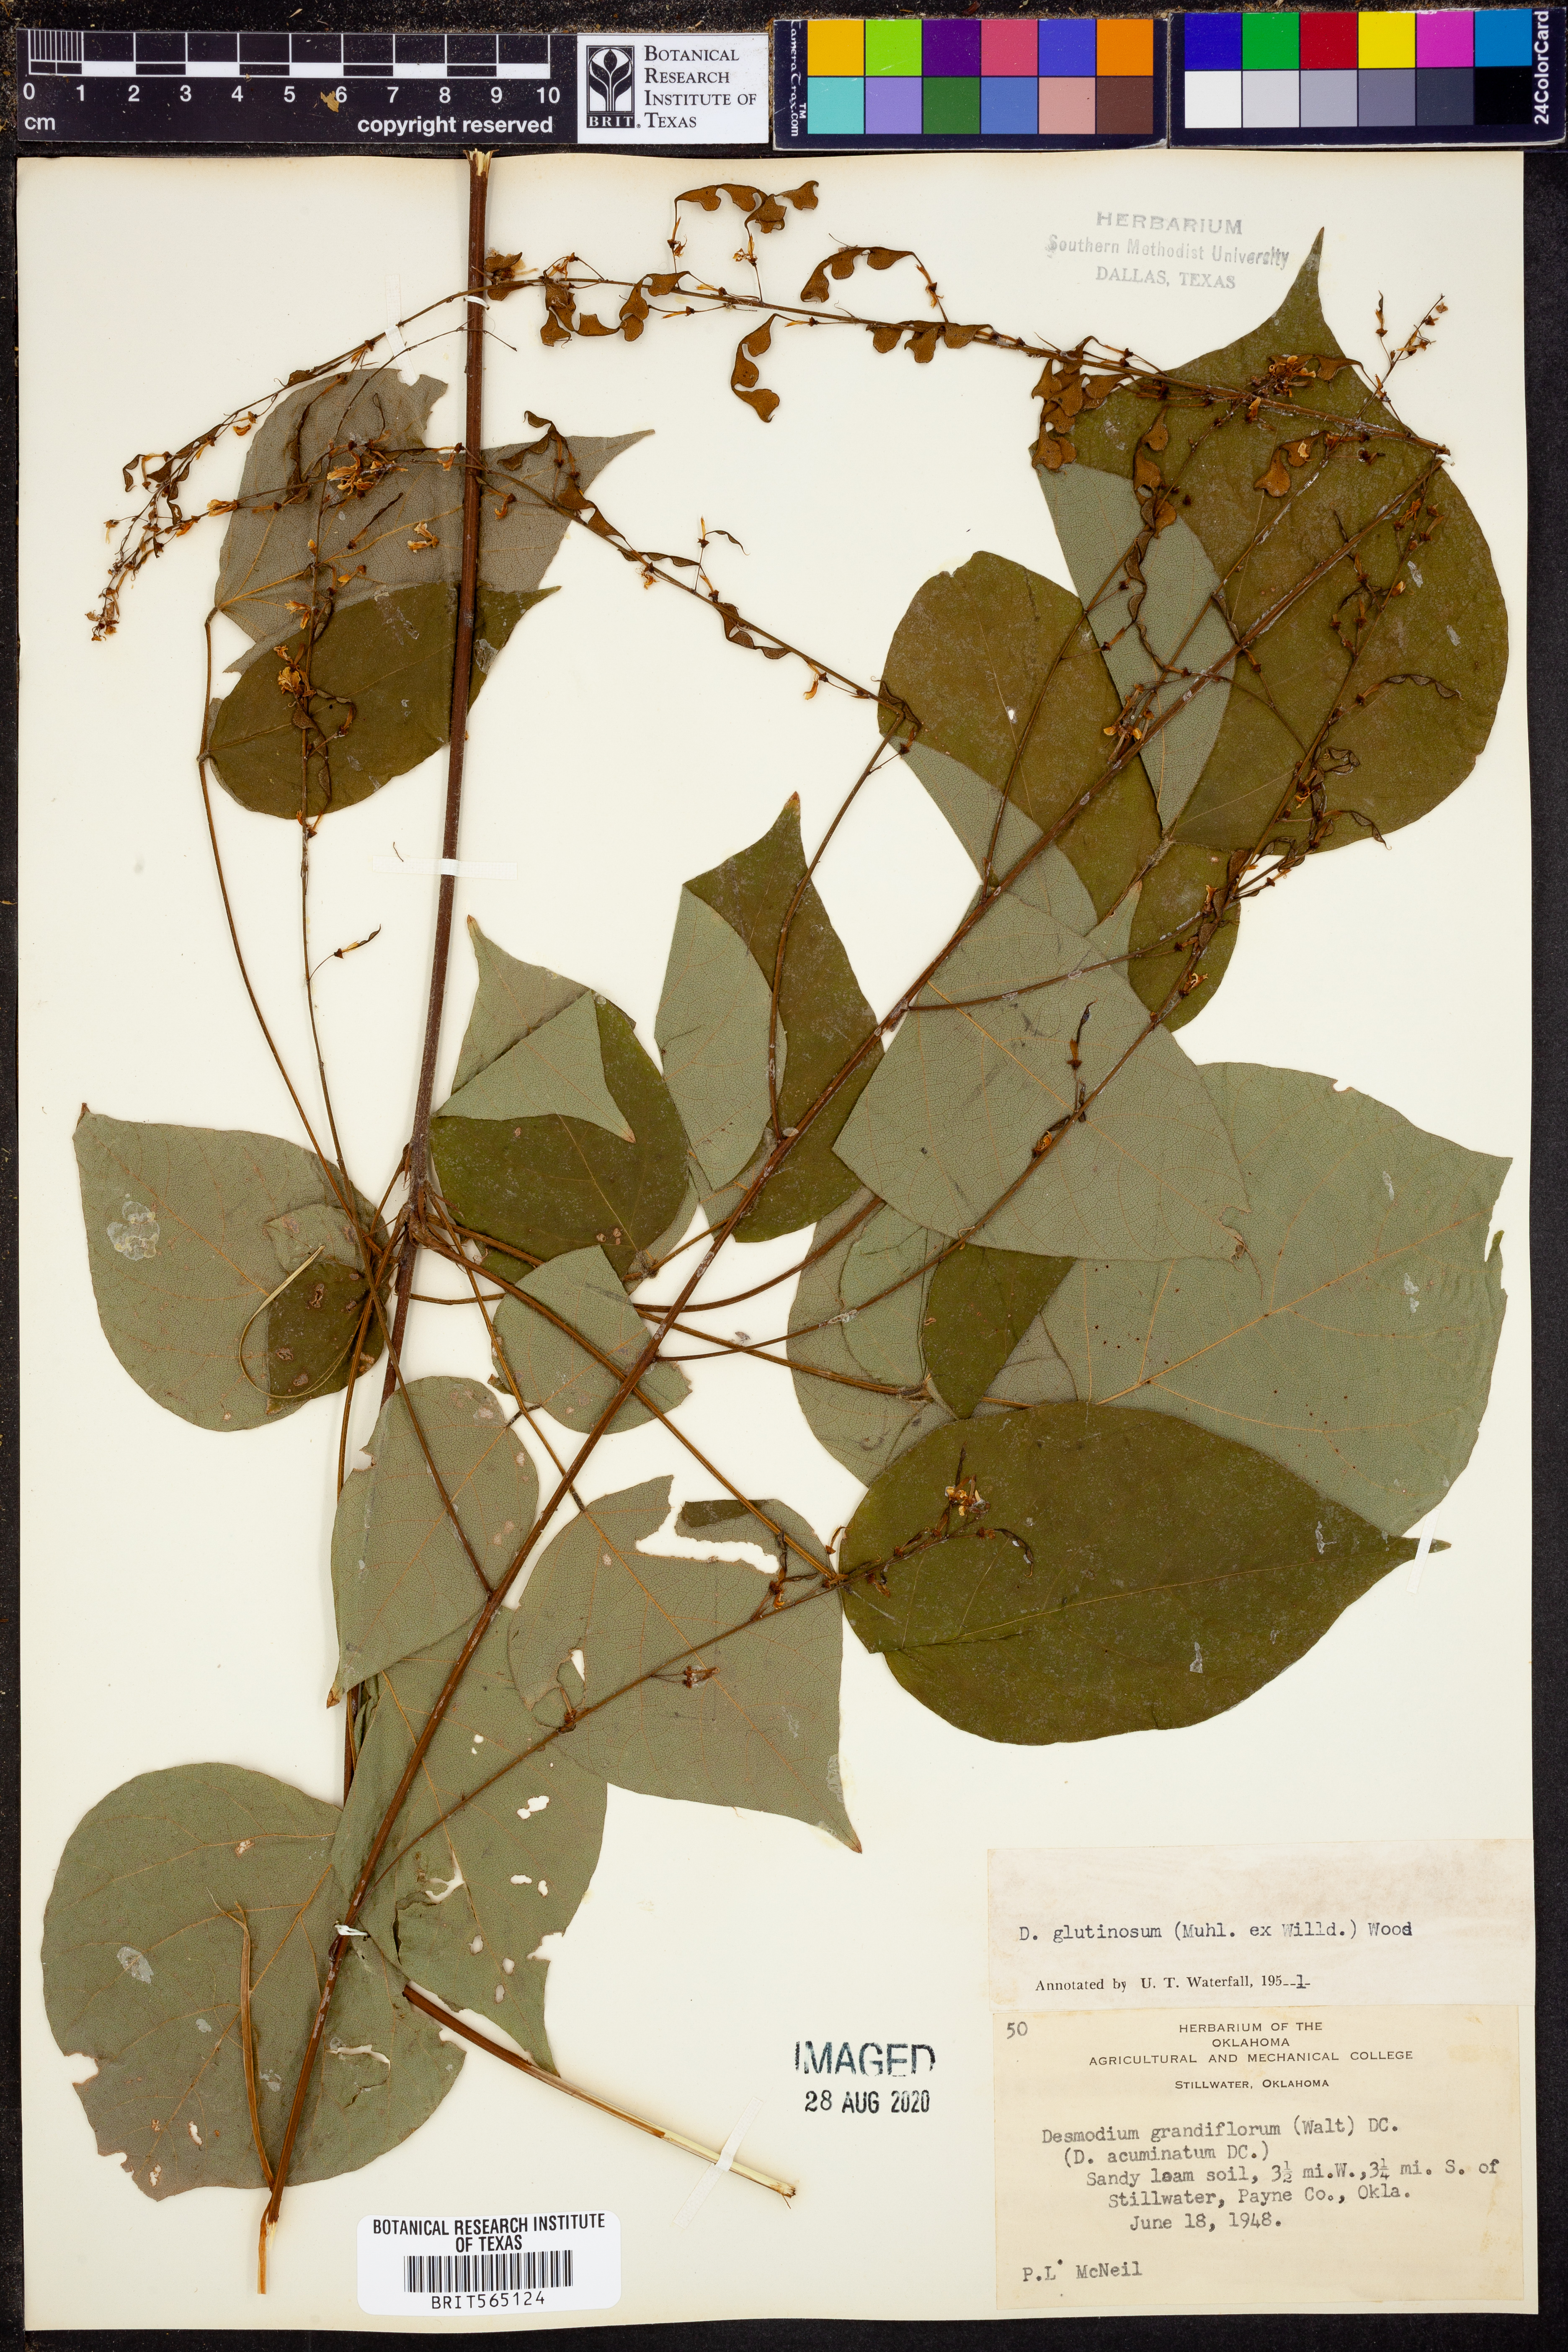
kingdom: Plantae
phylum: Tracheophyta
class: Magnoliopsida
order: Fabales
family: Fabaceae
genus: Hylodesmum
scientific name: Hylodesmum glutinosum
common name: Clustered-leaved tick-trefoil
